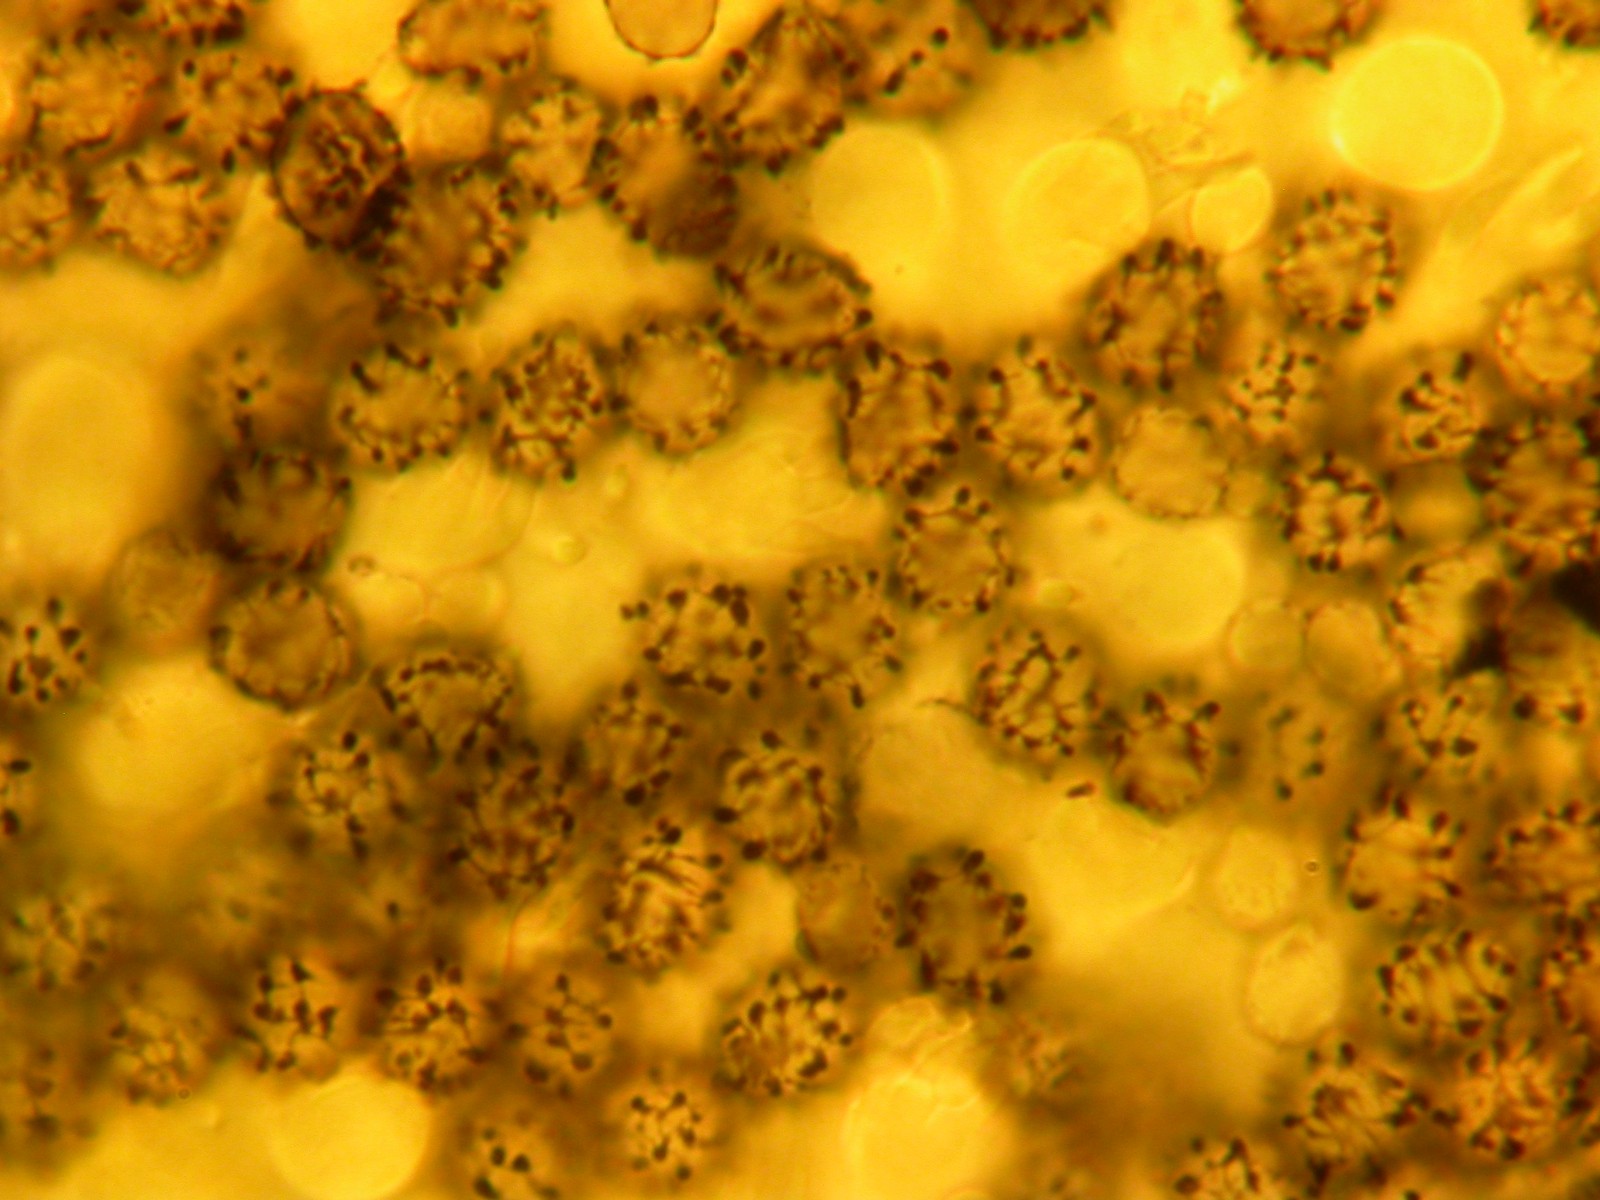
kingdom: Fungi
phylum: Basidiomycota
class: Agaricomycetes
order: Russulales
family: Russulaceae
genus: Russula
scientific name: Russula emetica
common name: stor gift-skørhat
